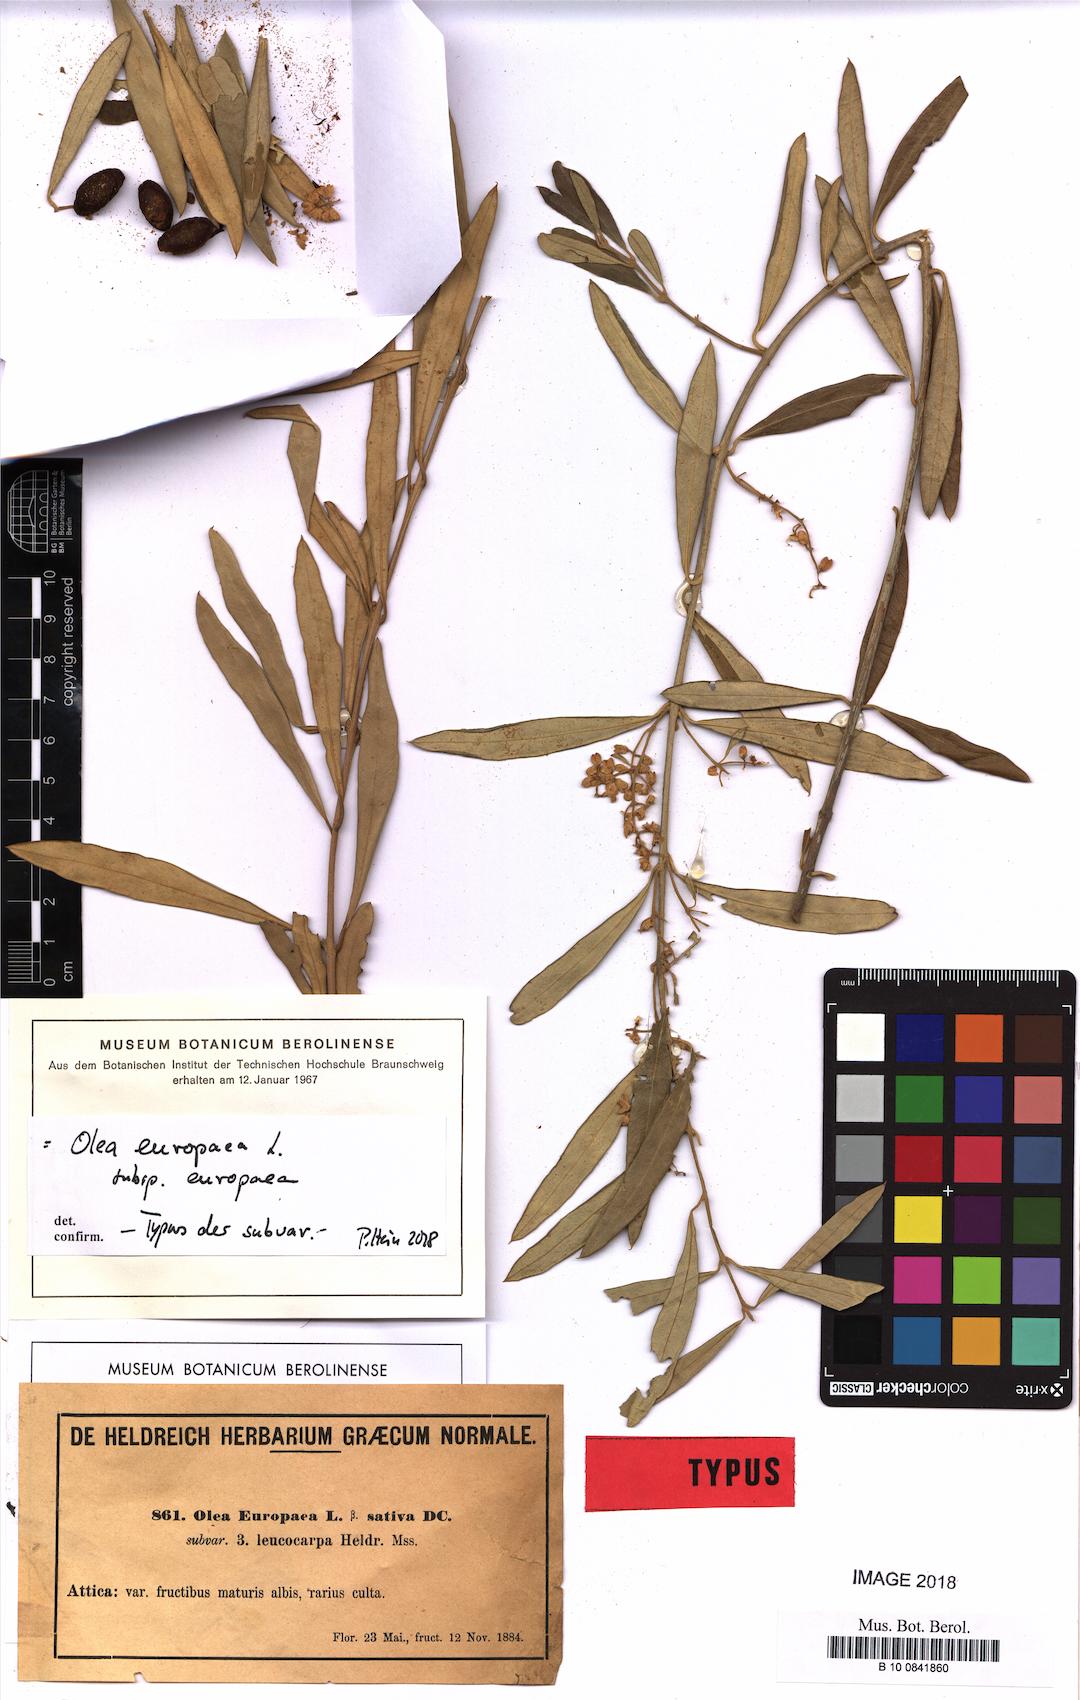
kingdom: Plantae
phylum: Tracheophyta
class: Magnoliopsida
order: Lamiales
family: Oleaceae
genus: Olea
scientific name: Olea europaea
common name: Olive
